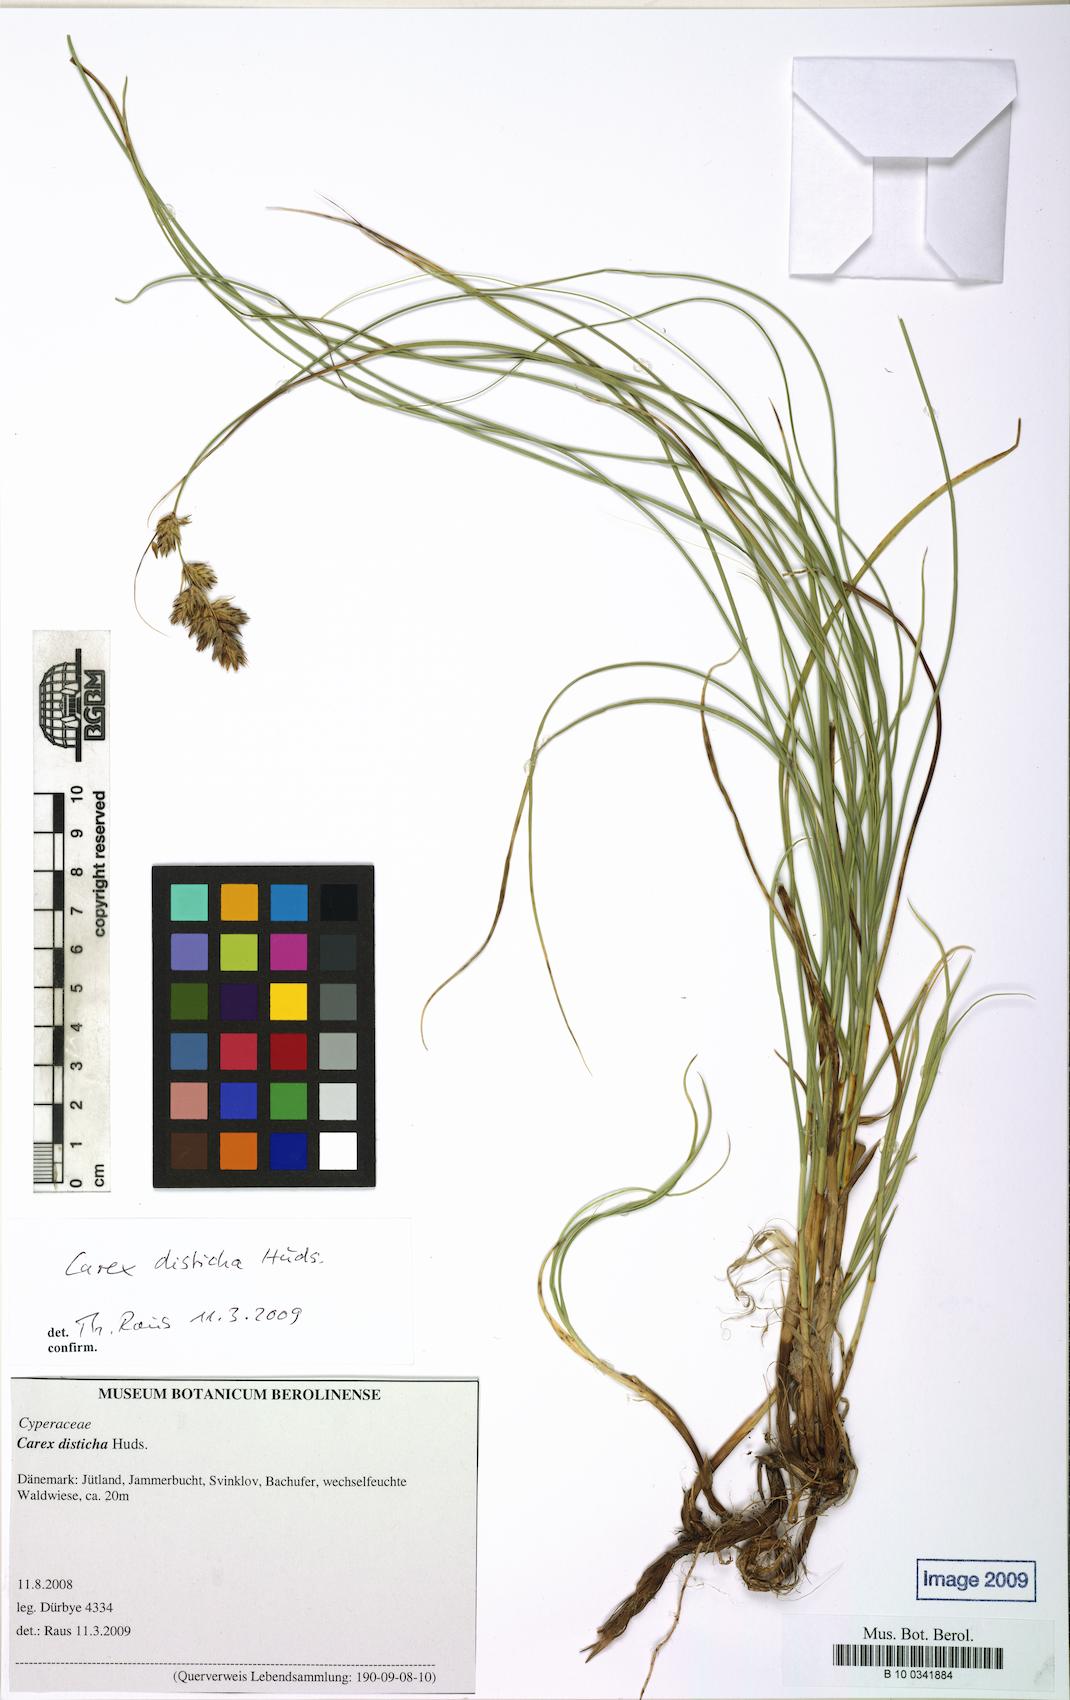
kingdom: Plantae
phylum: Tracheophyta
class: Liliopsida
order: Poales
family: Cyperaceae
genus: Carex
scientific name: Carex disticha
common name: Brown sedge
